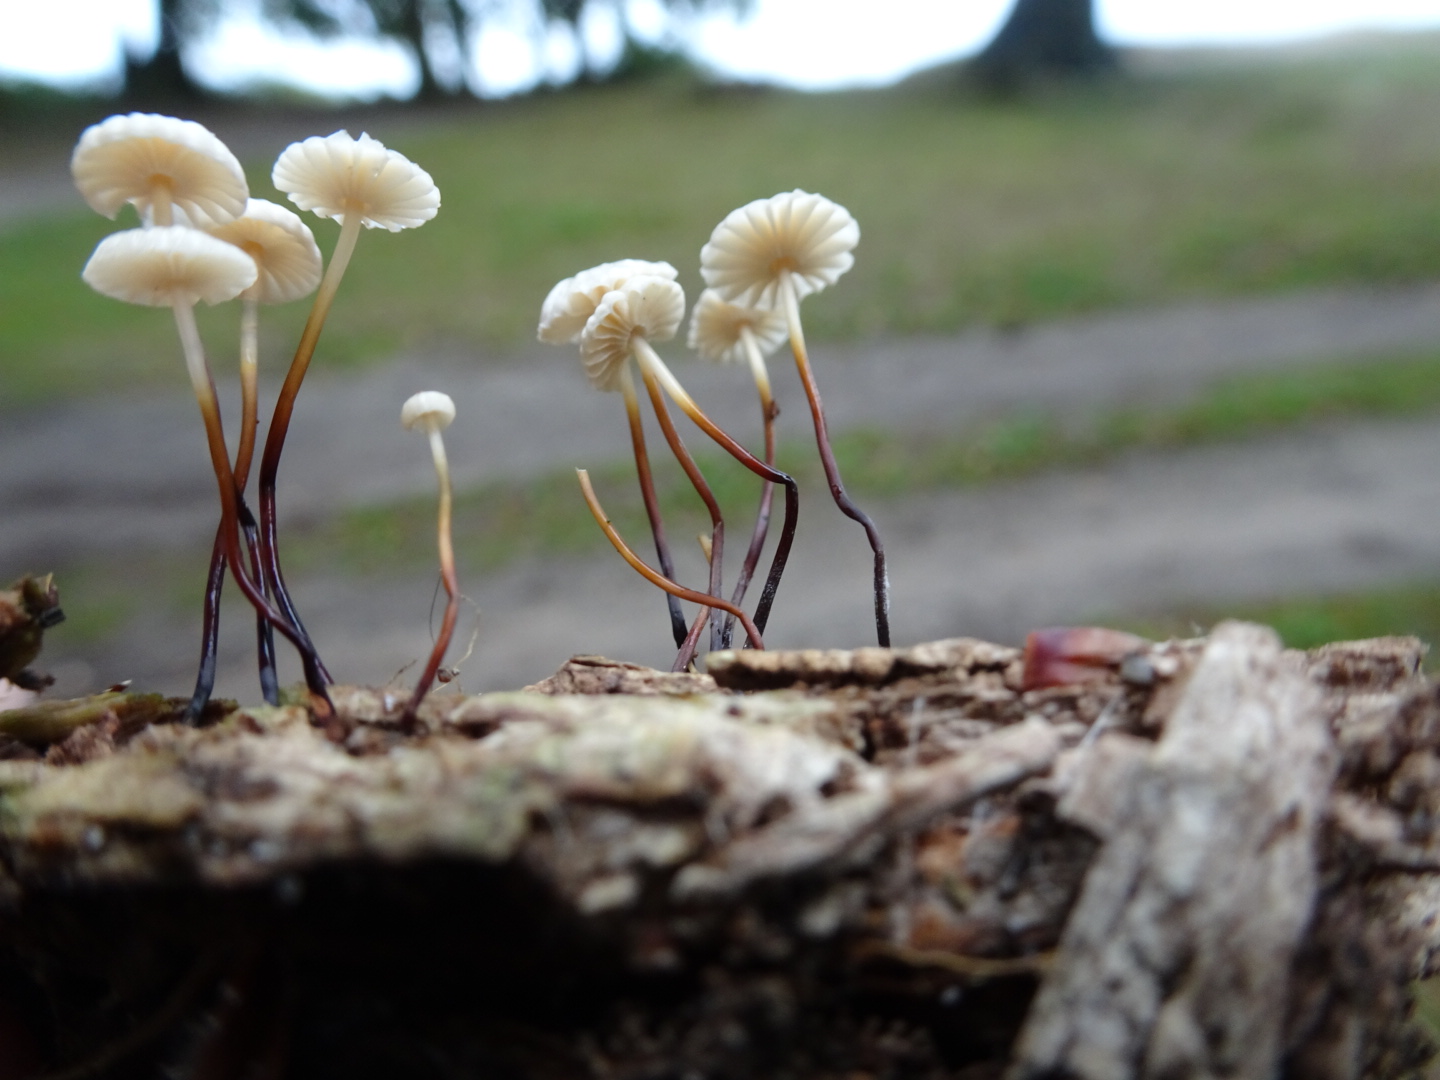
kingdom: Fungi
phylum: Basidiomycota
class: Agaricomycetes
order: Agaricales
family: Marasmiaceae
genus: Marasmius
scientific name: Marasmius rotula
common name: hjul-bruskhat
